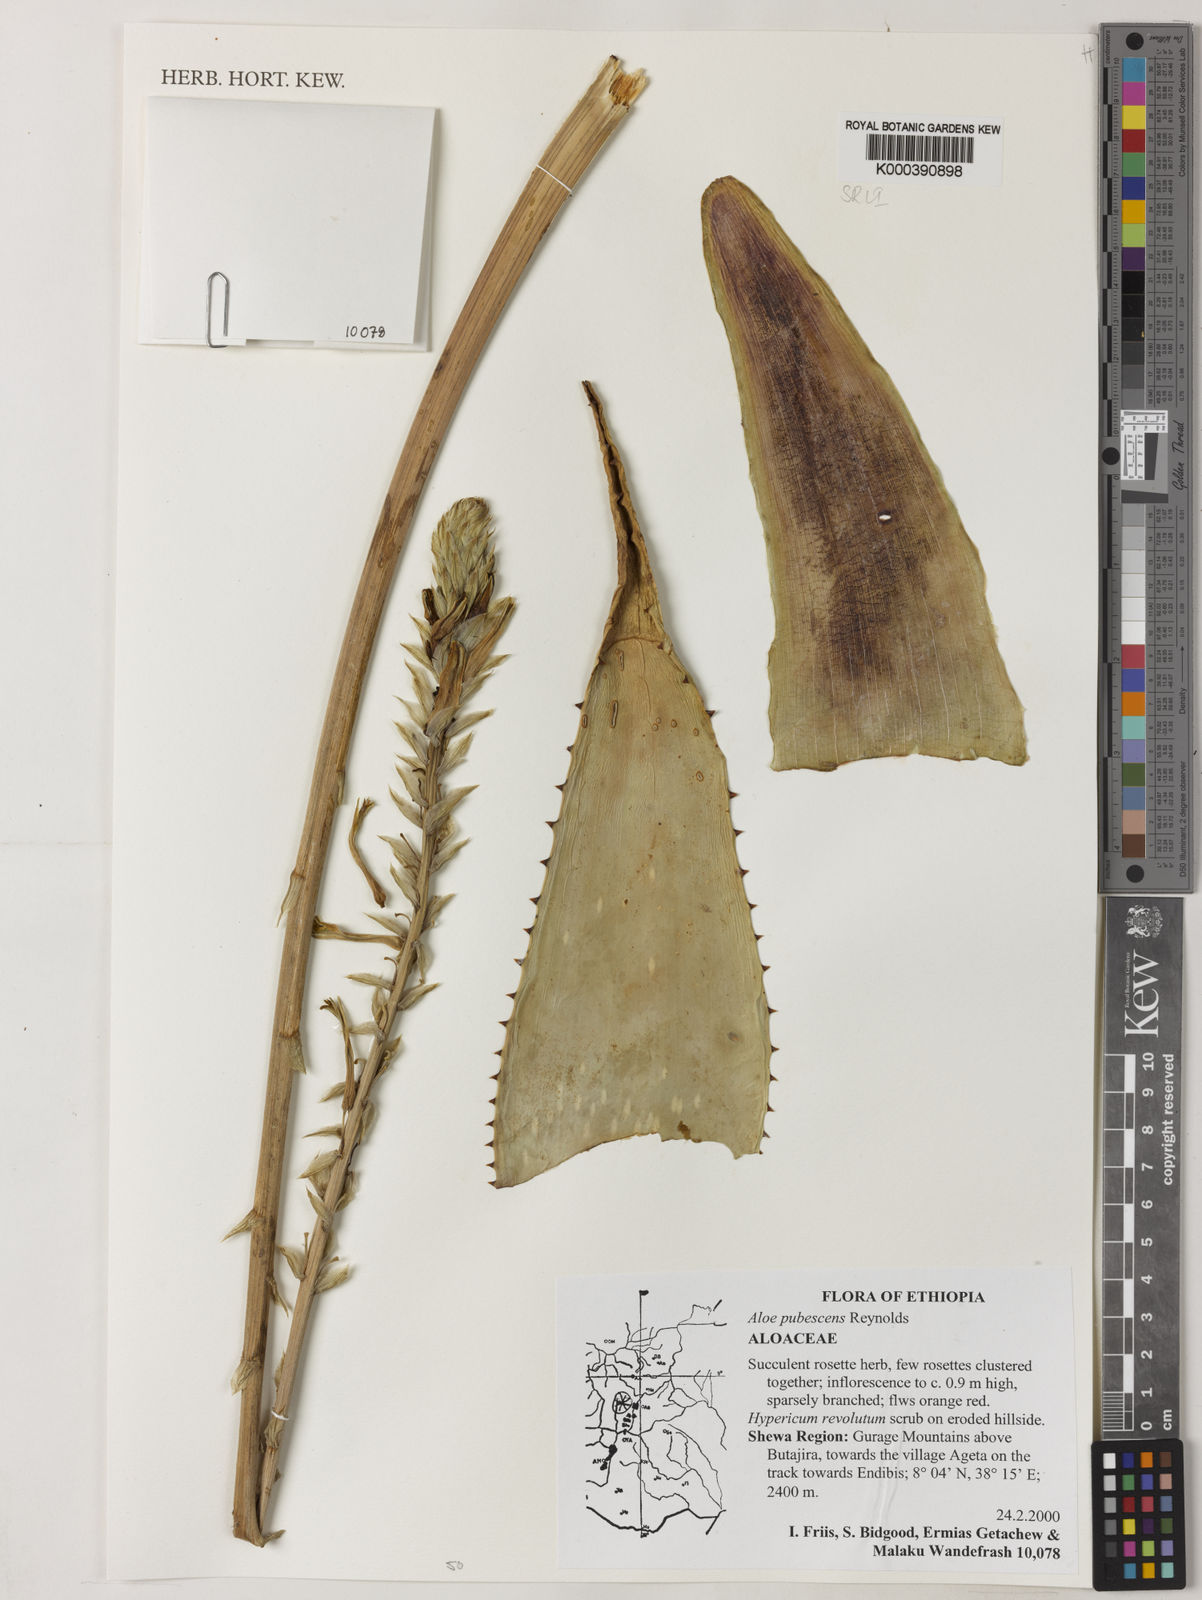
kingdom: Plantae
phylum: Tracheophyta
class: Liliopsida
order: Asparagales
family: Asphodelaceae
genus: Aloe
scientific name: Aloe pubescens
